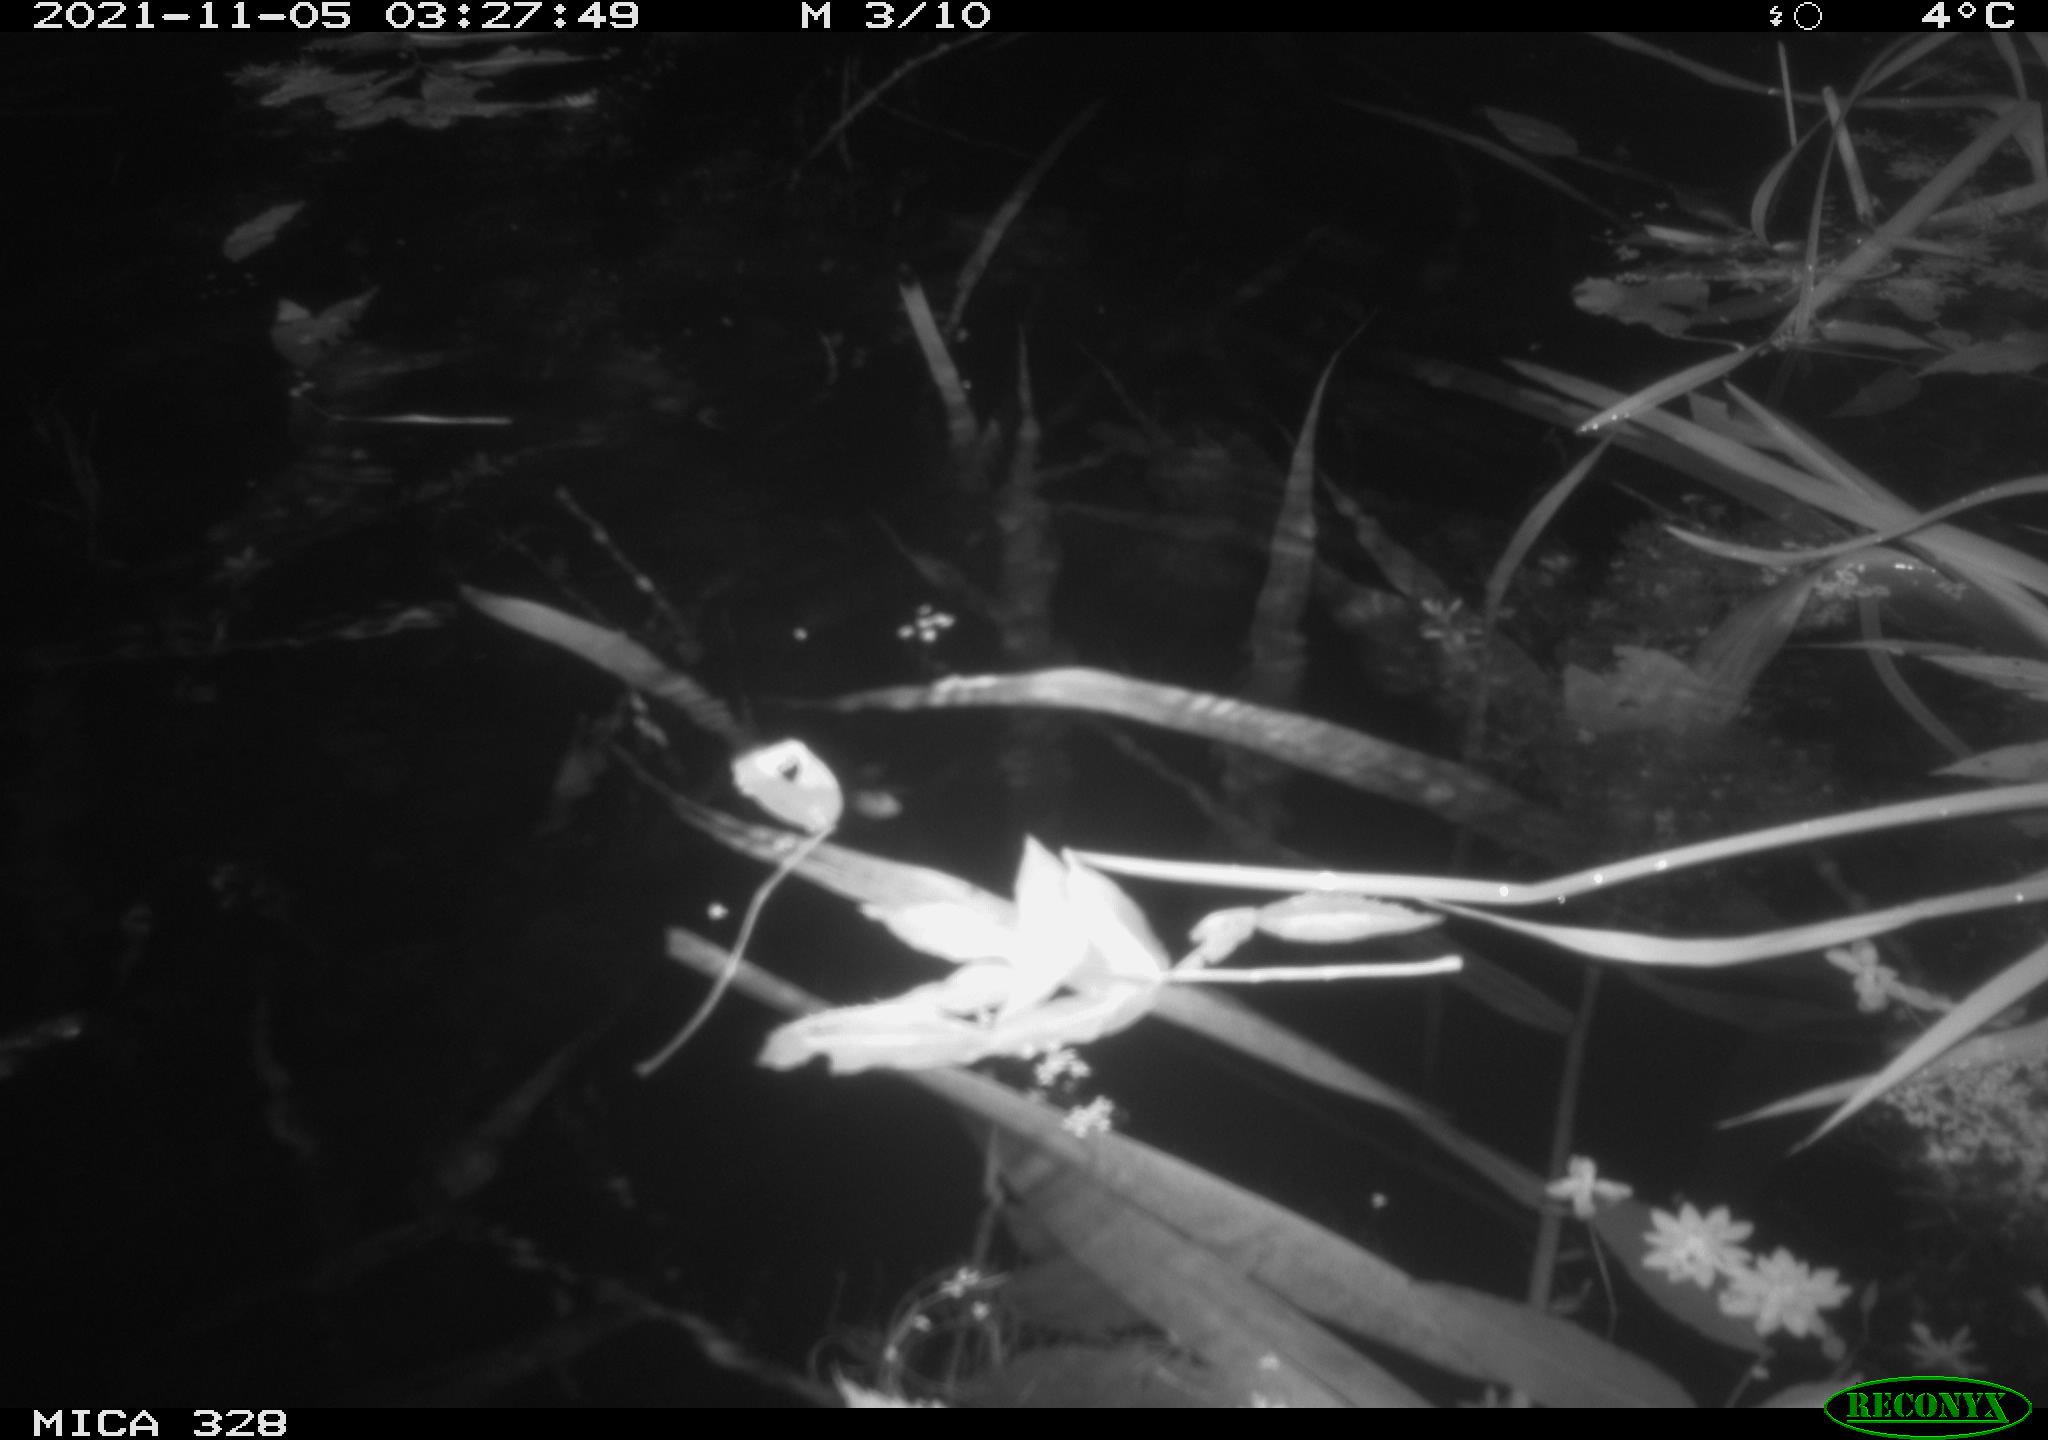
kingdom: Animalia
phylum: Chordata
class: Mammalia
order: Rodentia
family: Cricetidae
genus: Ondatra
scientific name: Ondatra zibethicus
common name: Muskrat
